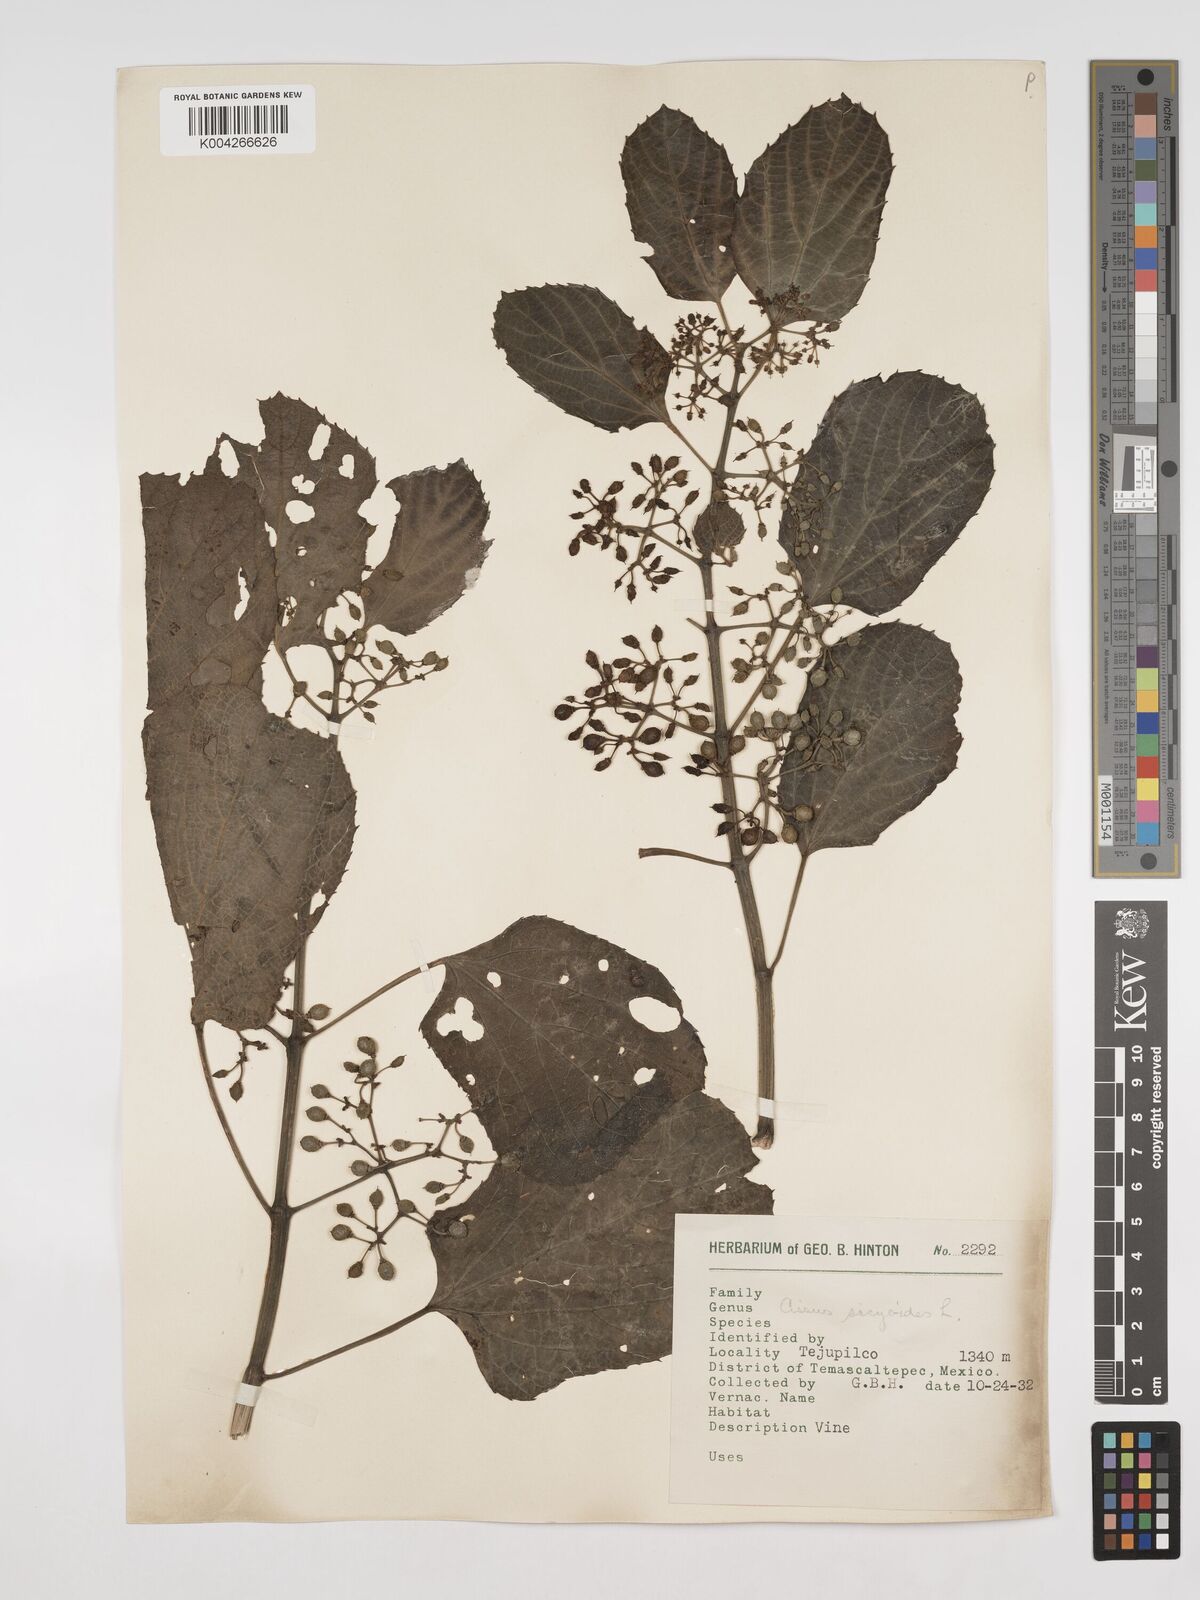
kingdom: Plantae
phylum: Tracheophyta
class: Magnoliopsida
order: Vitales
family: Vitaceae
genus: Cissus
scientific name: Cissus
